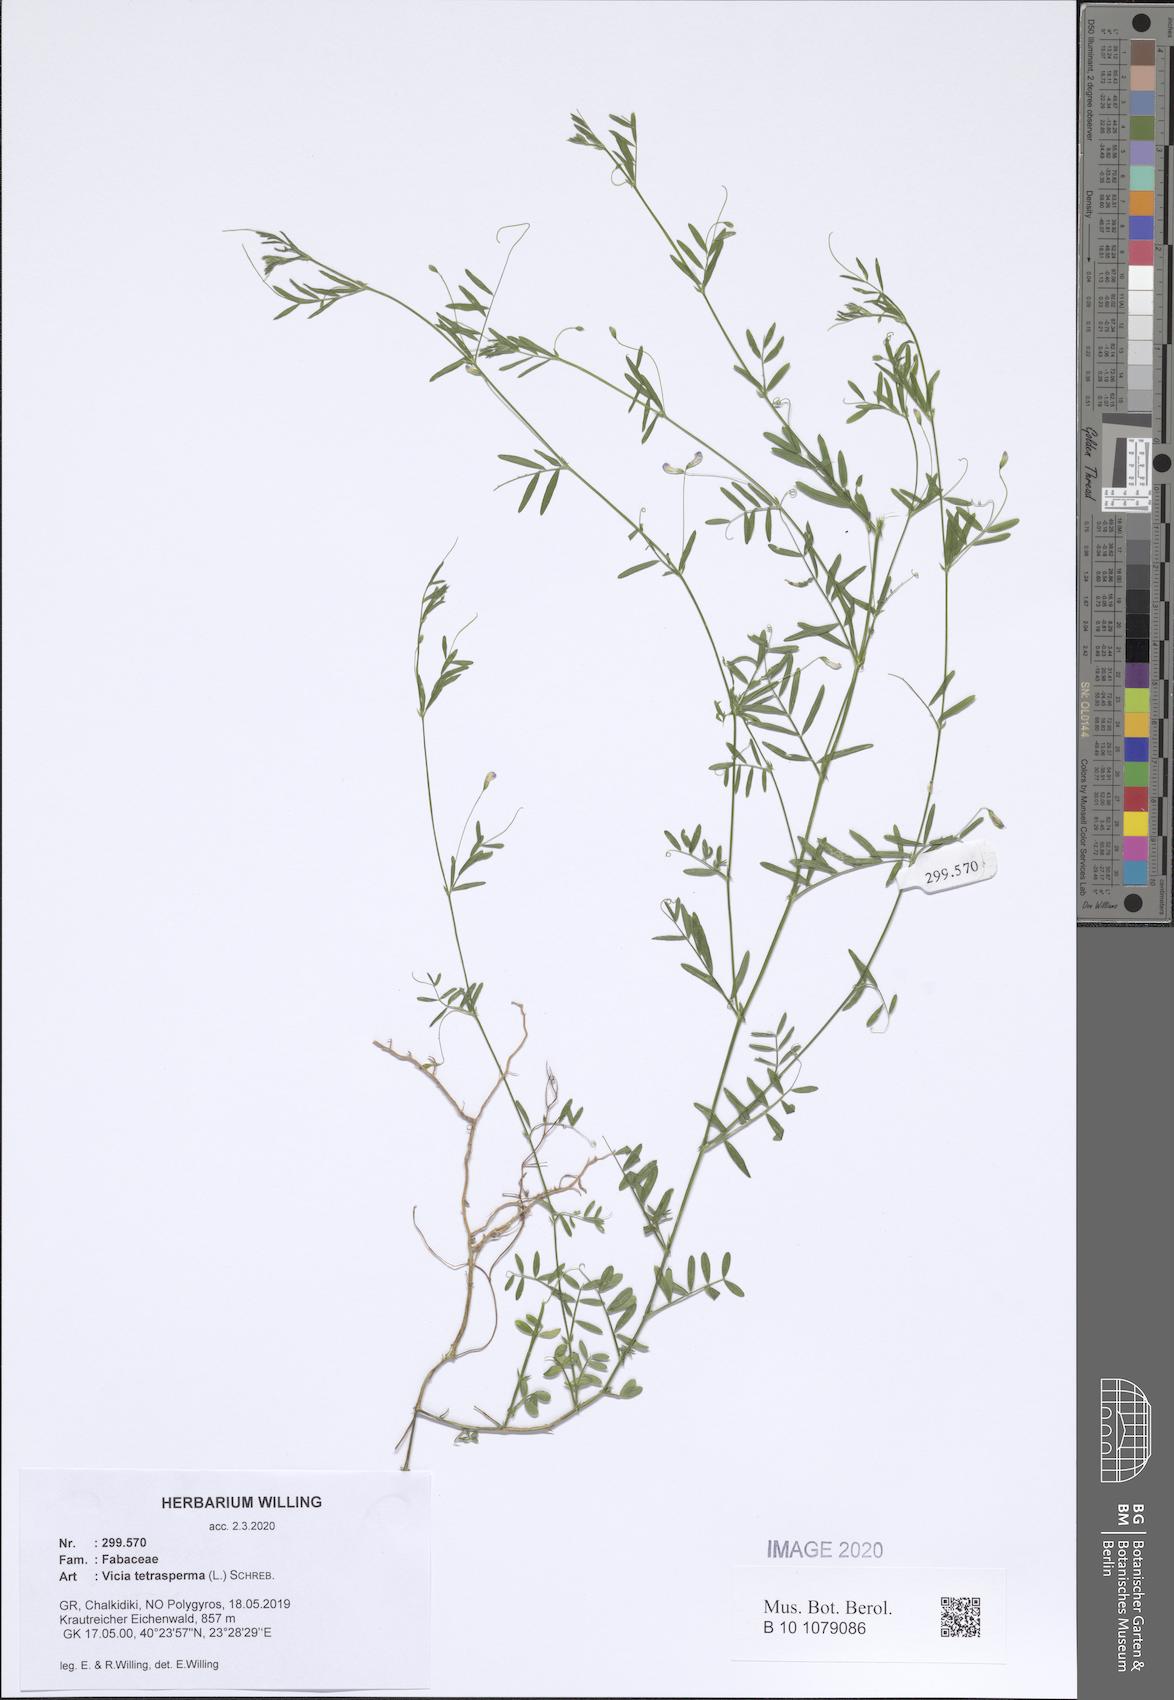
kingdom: Plantae
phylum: Tracheophyta
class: Magnoliopsida
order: Fabales
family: Fabaceae
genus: Vicia
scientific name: Vicia tetrasperma
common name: Smooth tare
